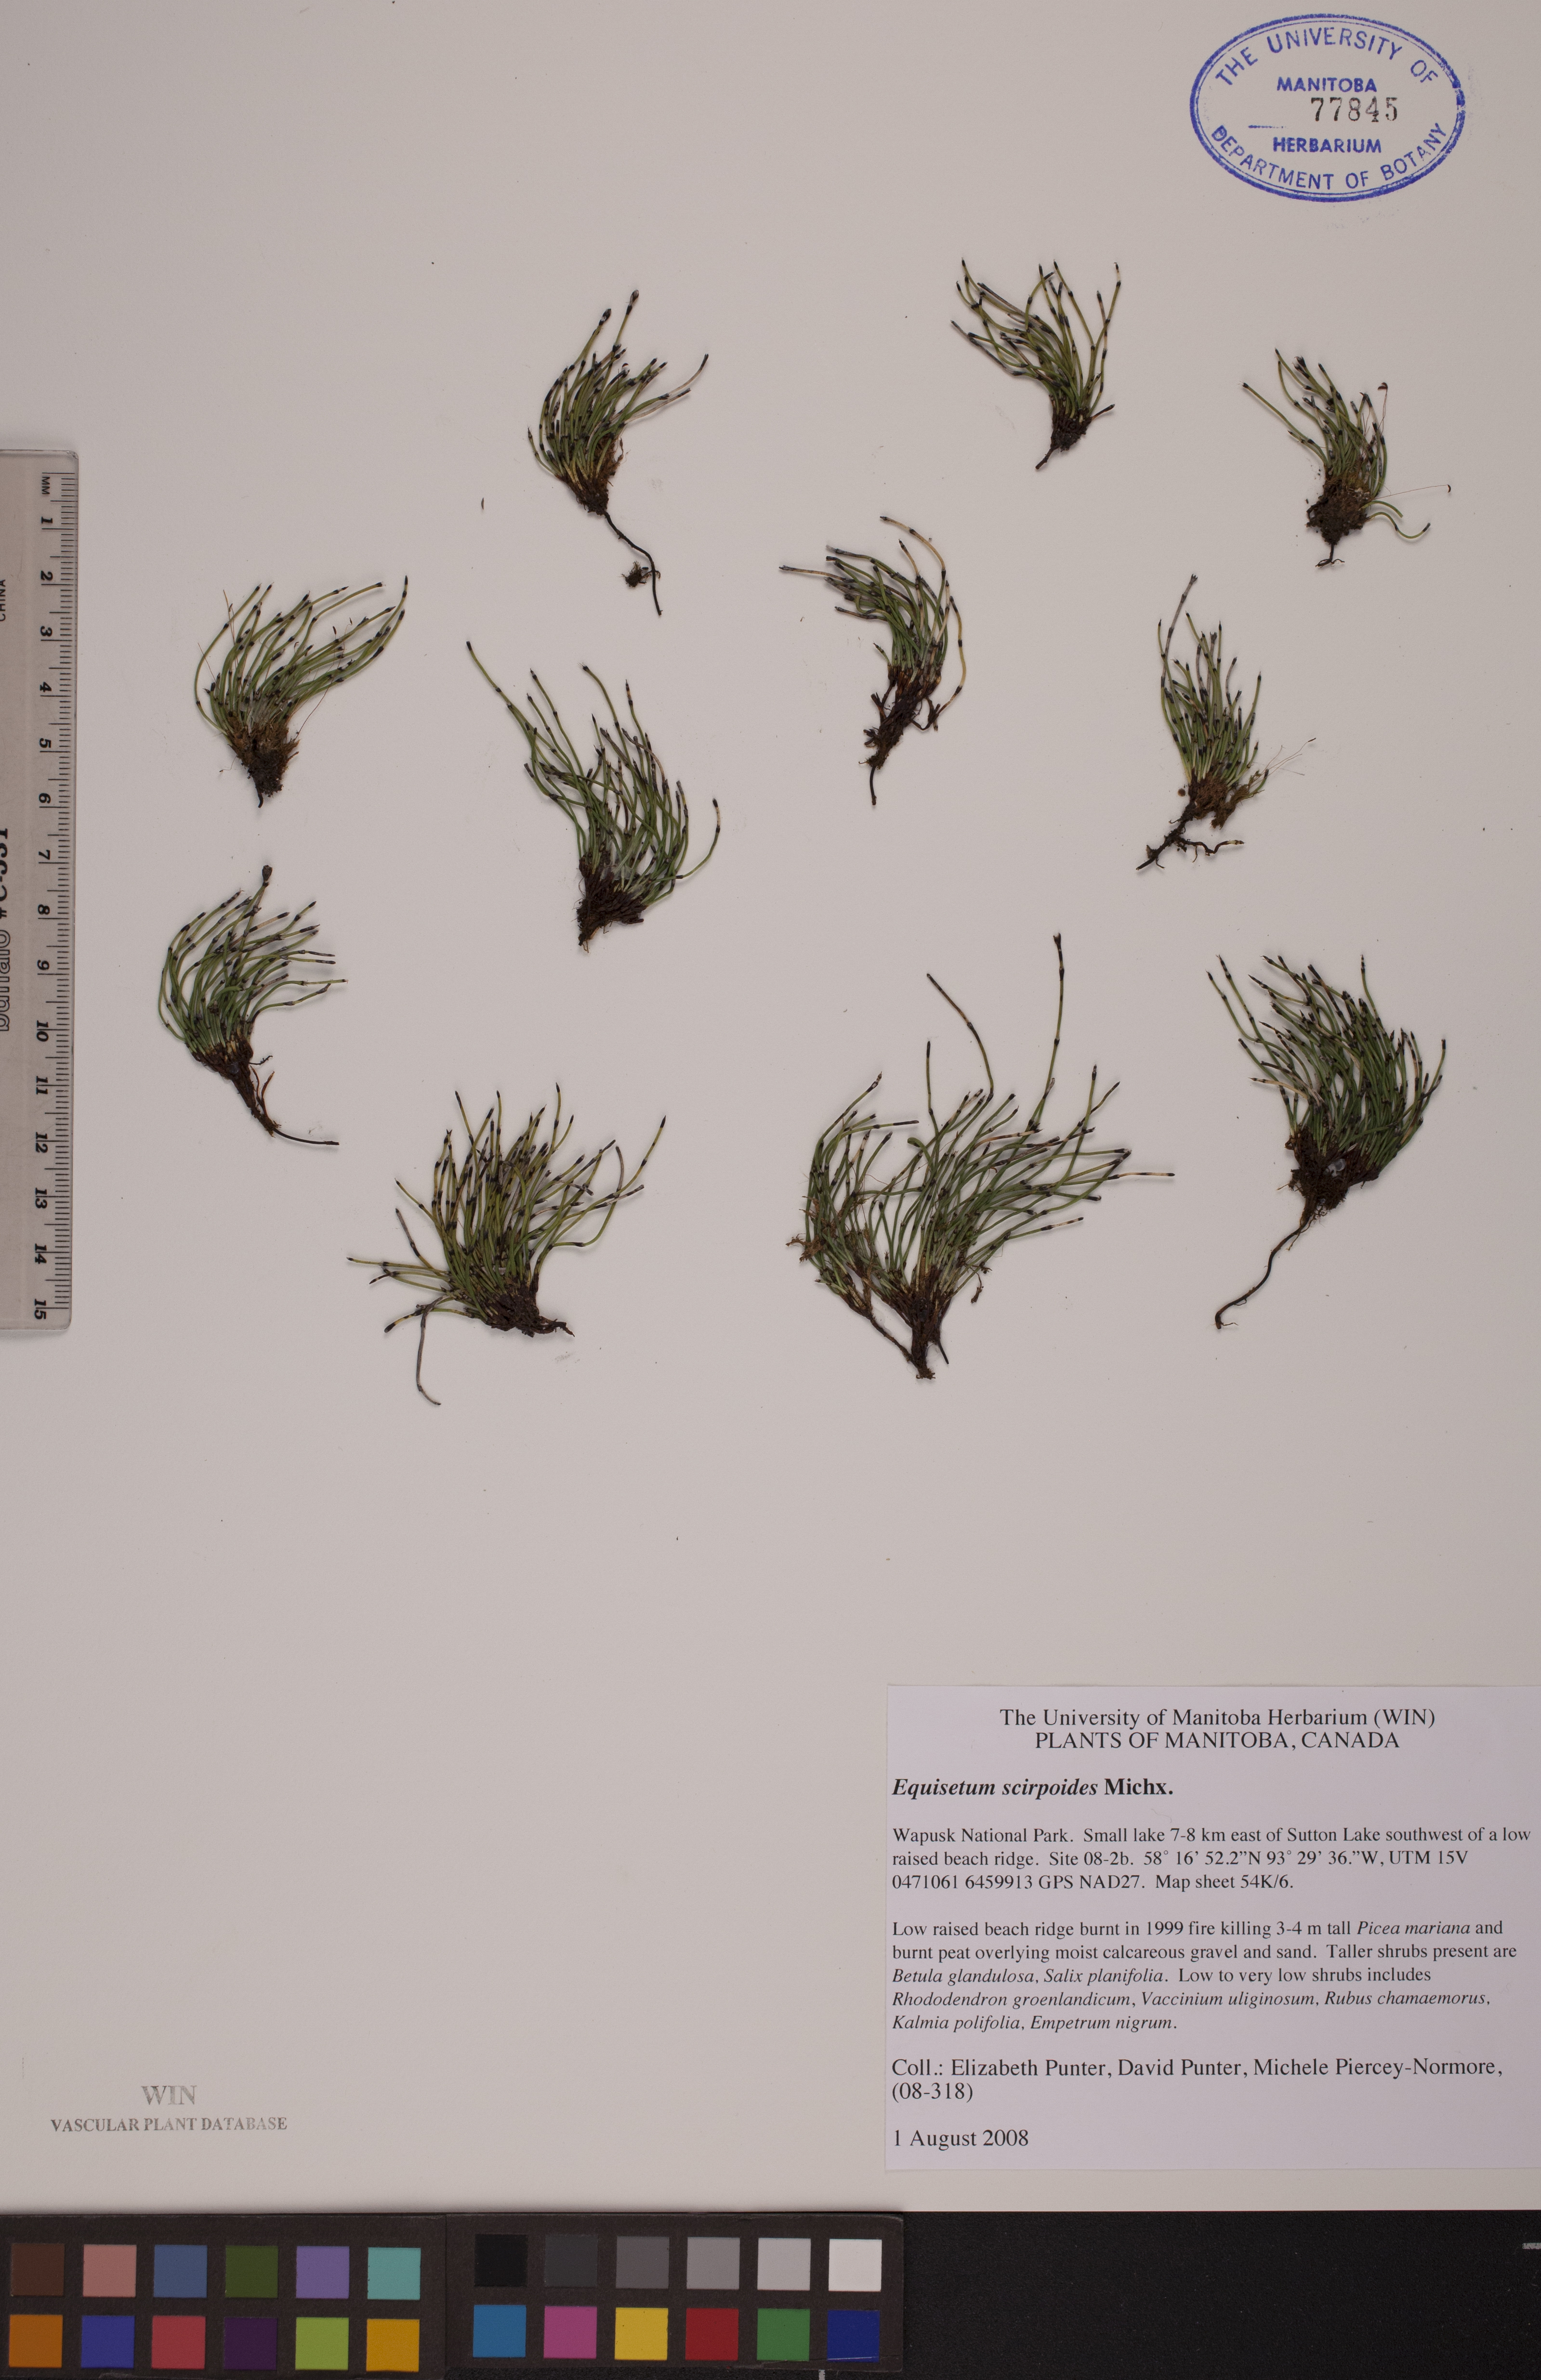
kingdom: Plantae
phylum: Tracheophyta
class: Polypodiopsida
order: Equisetales
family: Equisetaceae
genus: Equisetum
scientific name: Equisetum scirpoides
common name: Delicate horsetail
